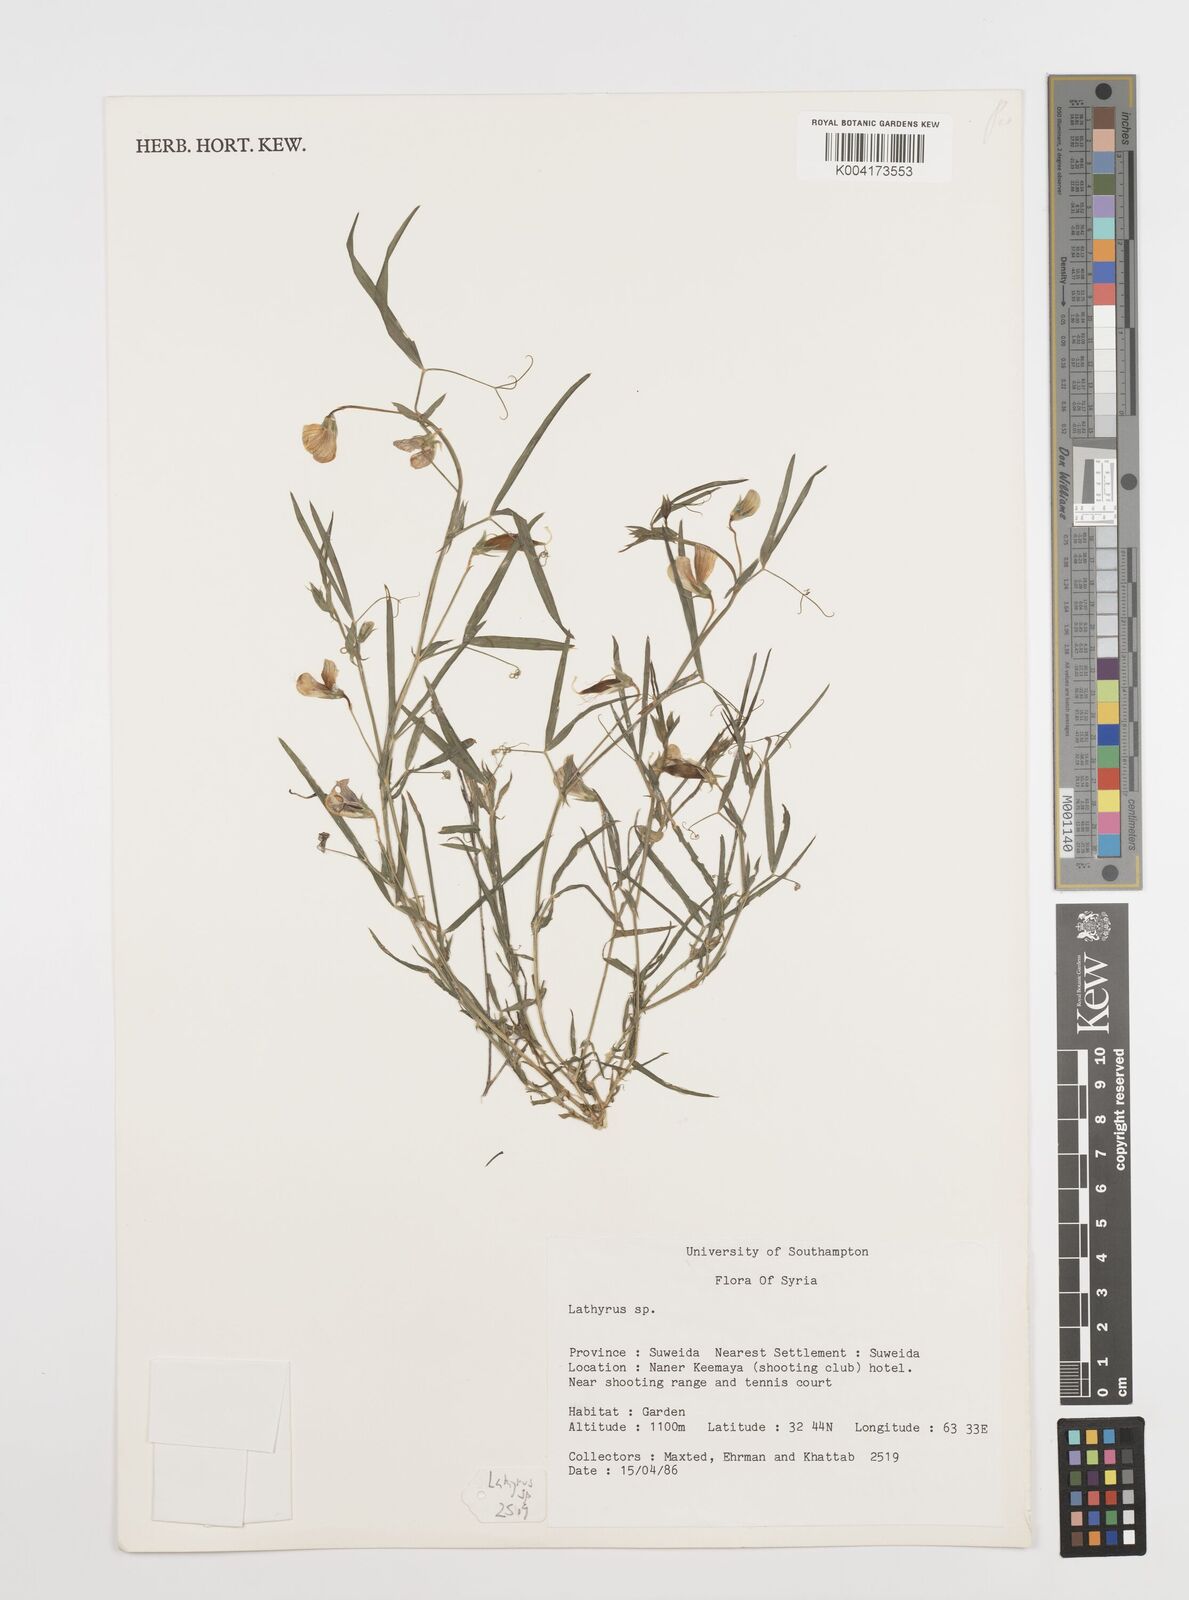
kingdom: Plantae
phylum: Tracheophyta
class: Magnoliopsida
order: Fabales
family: Fabaceae
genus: Lathyrus
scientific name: Lathyrus
